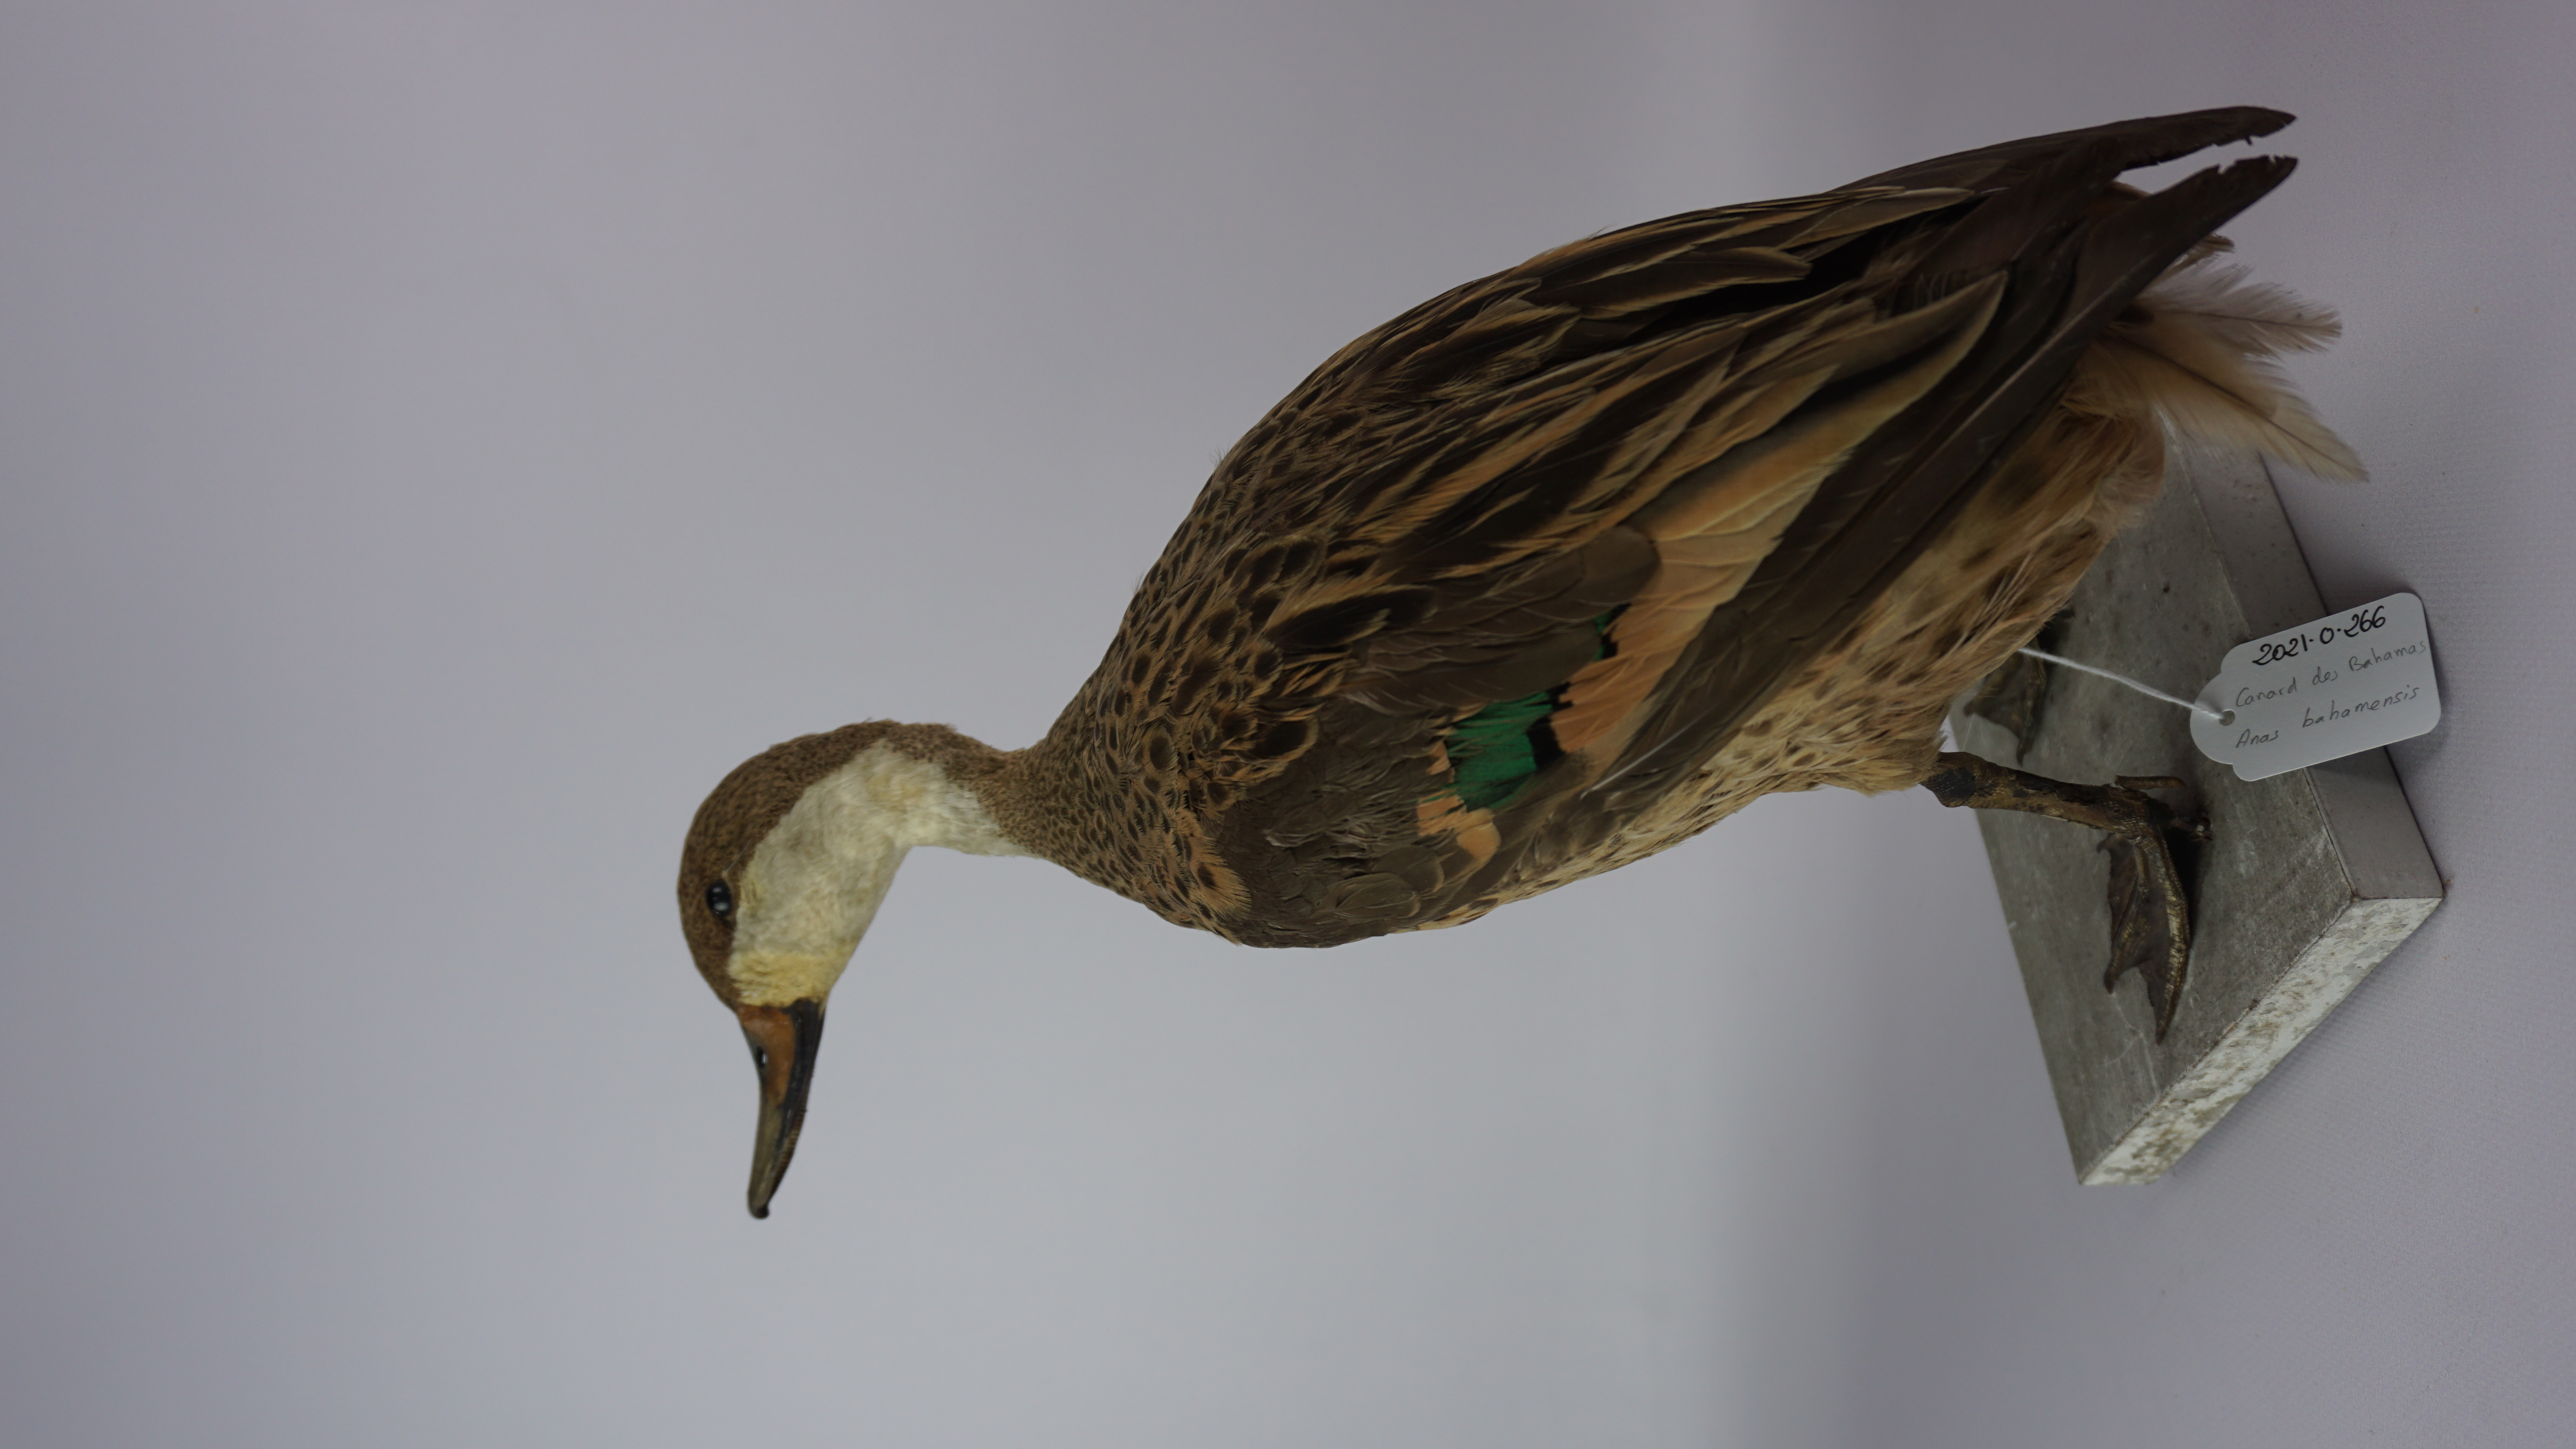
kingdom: Animalia
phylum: Chordata
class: Aves
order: Anseriformes
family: Anatidae
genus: Anas
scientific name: Anas bahamensis
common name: White-cheeked pintail
